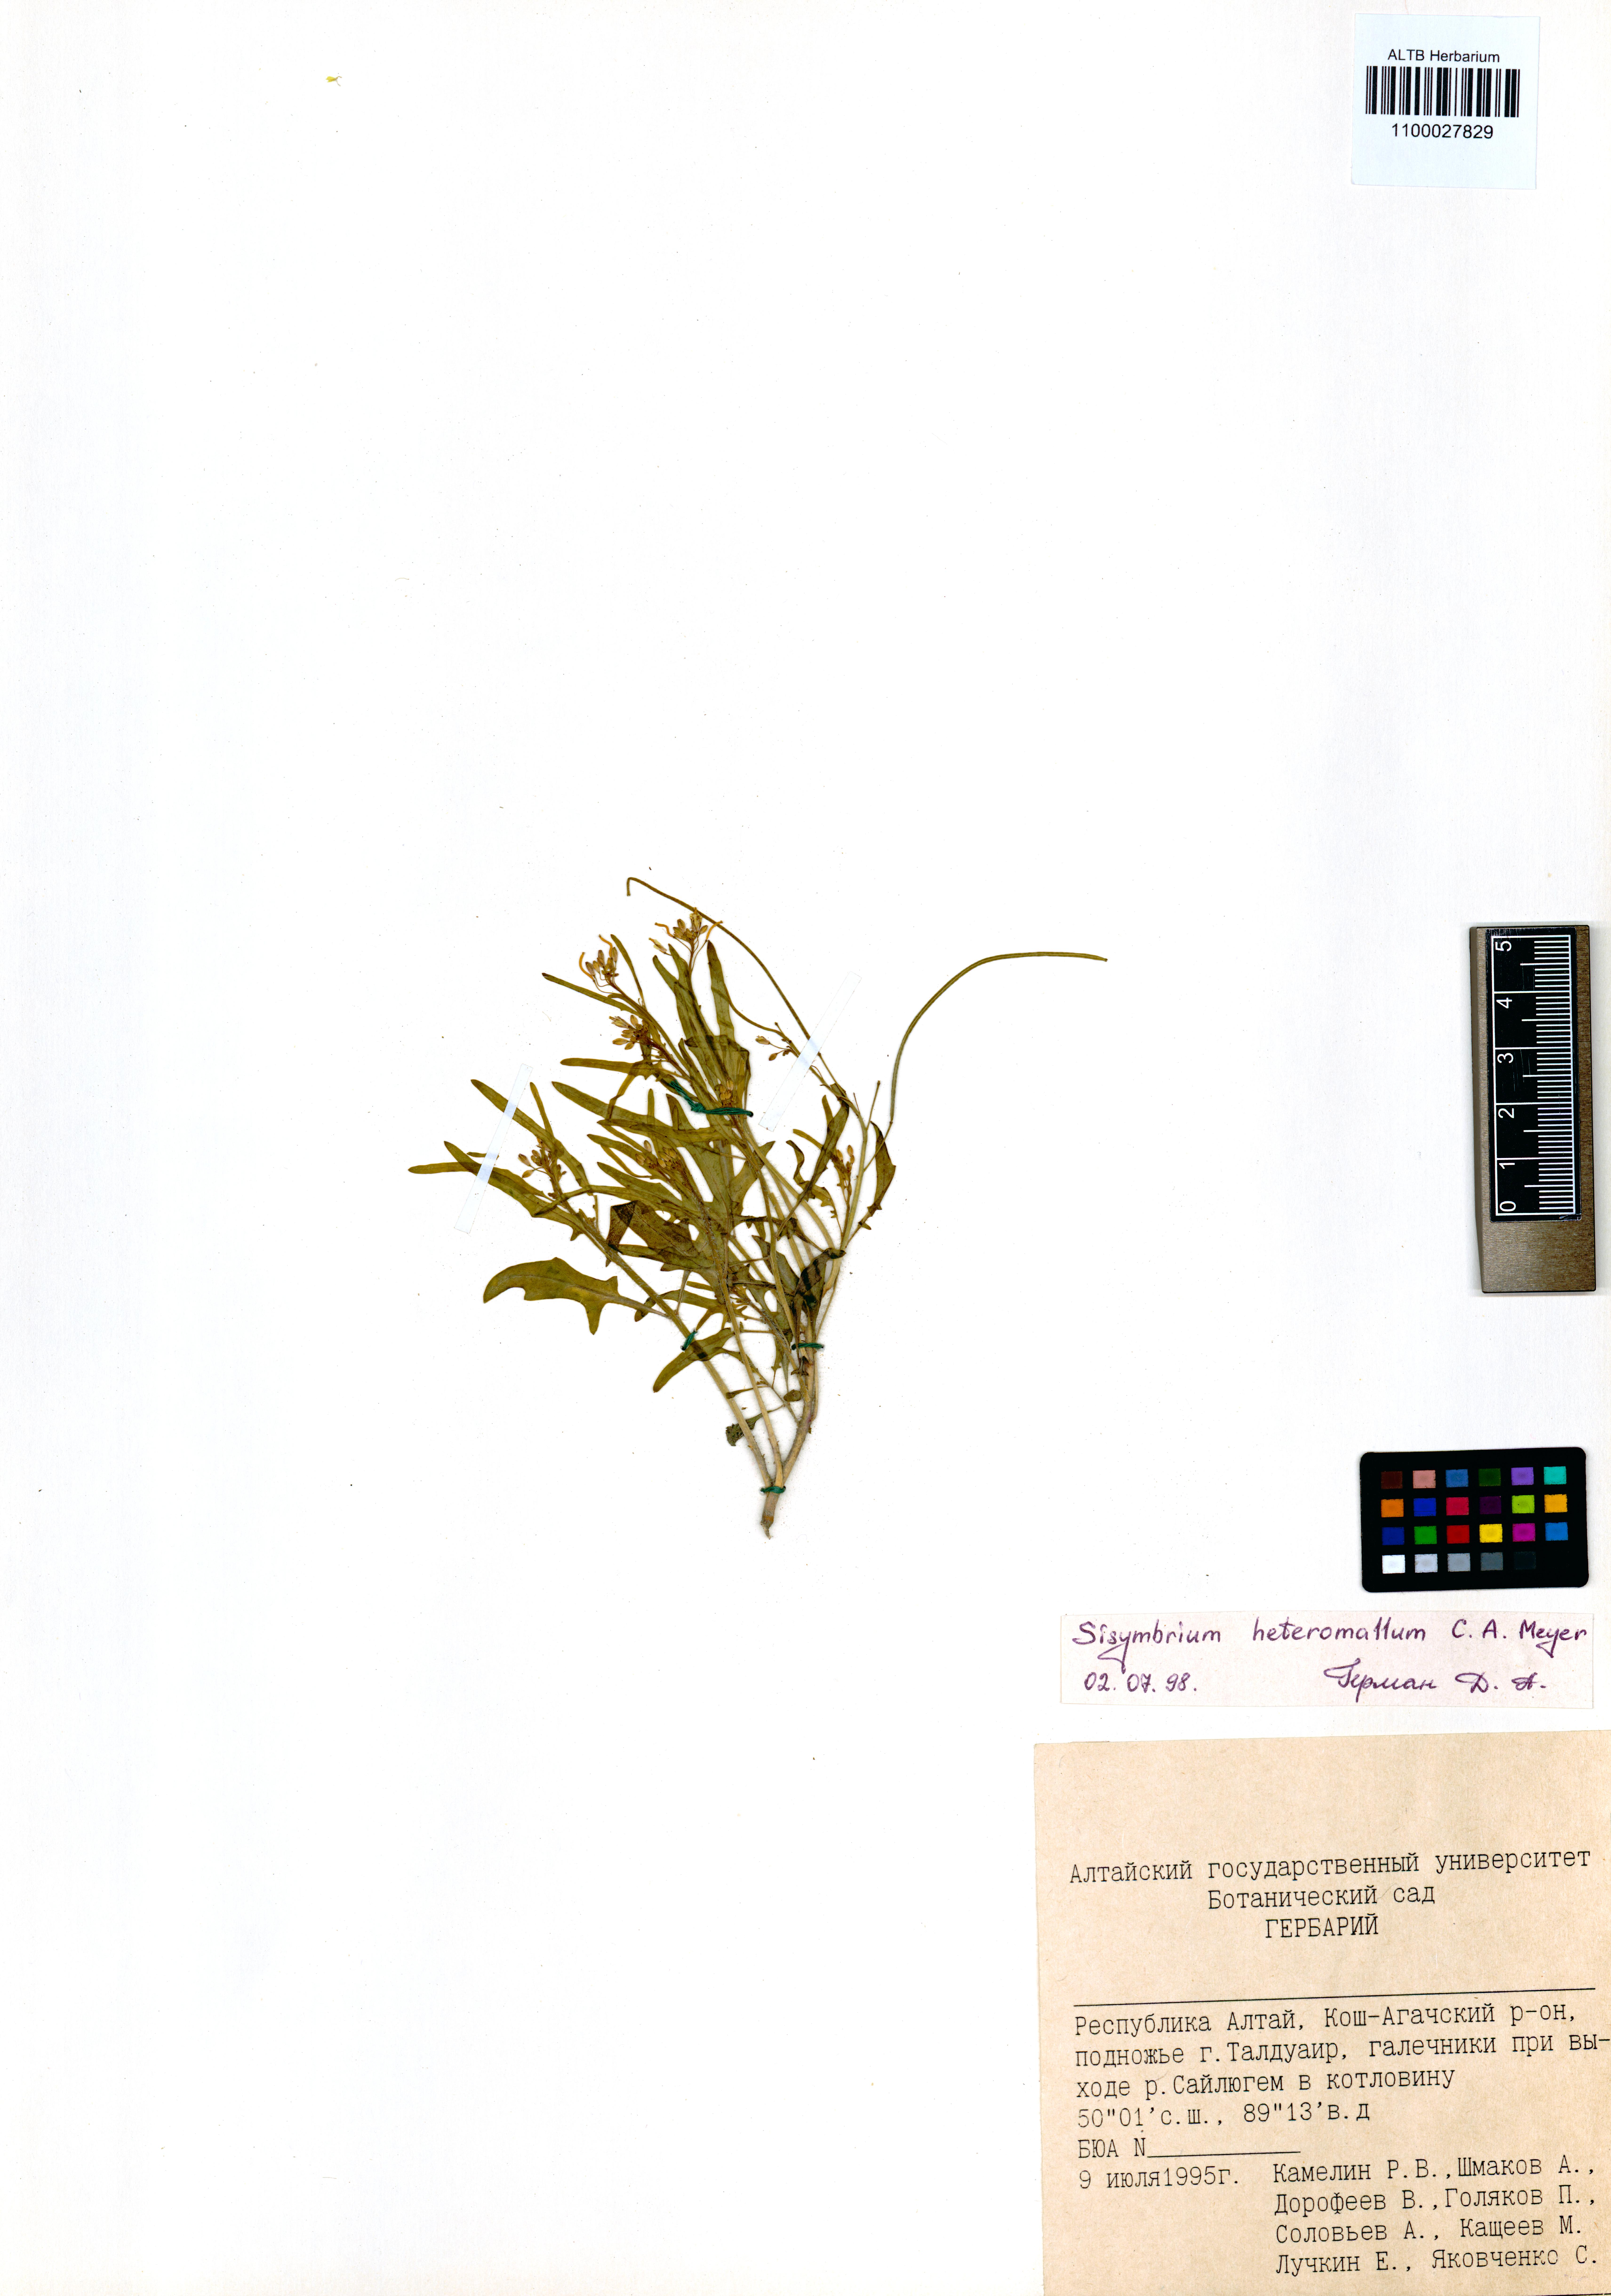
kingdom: Plantae
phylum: Tracheophyta
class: Magnoliopsida
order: Brassicales
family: Brassicaceae
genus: Sisymbrium
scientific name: Sisymbrium heteromallum
